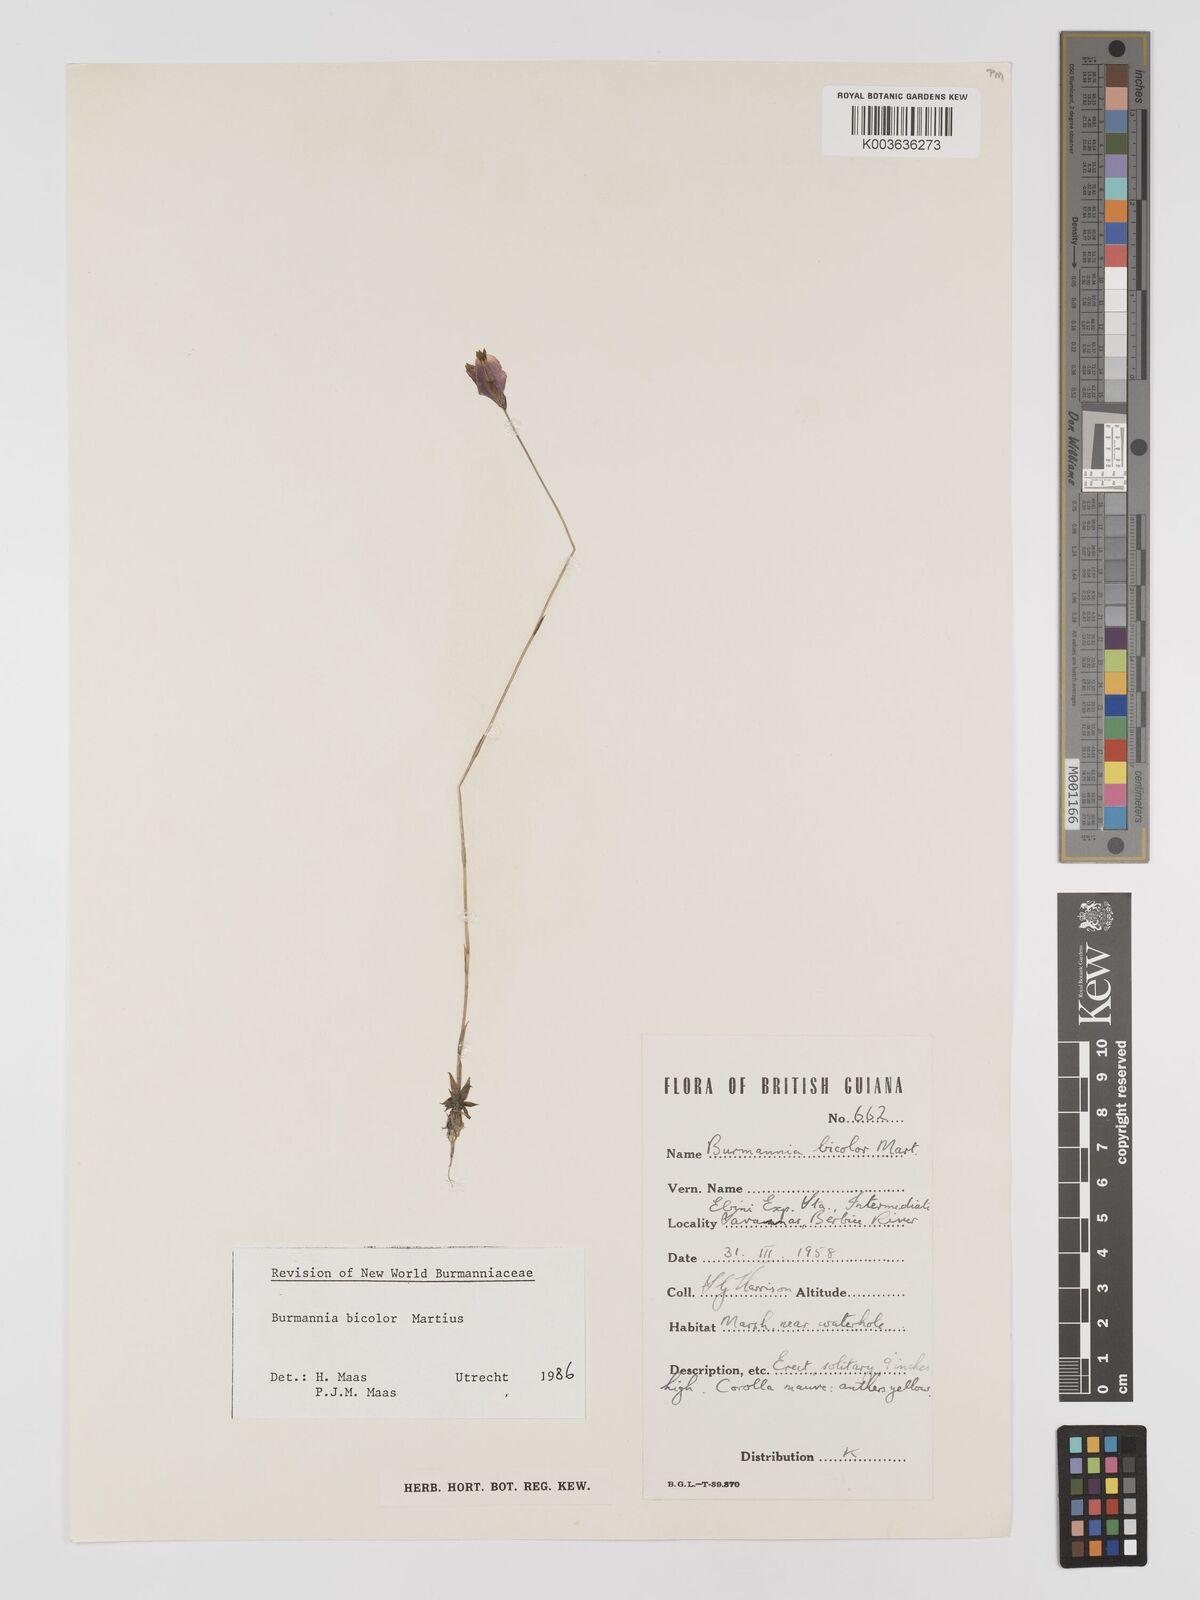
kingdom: Plantae
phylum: Tracheophyta
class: Liliopsida
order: Dioscoreales
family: Burmanniaceae
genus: Burmannia
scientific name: Burmannia bicolor
